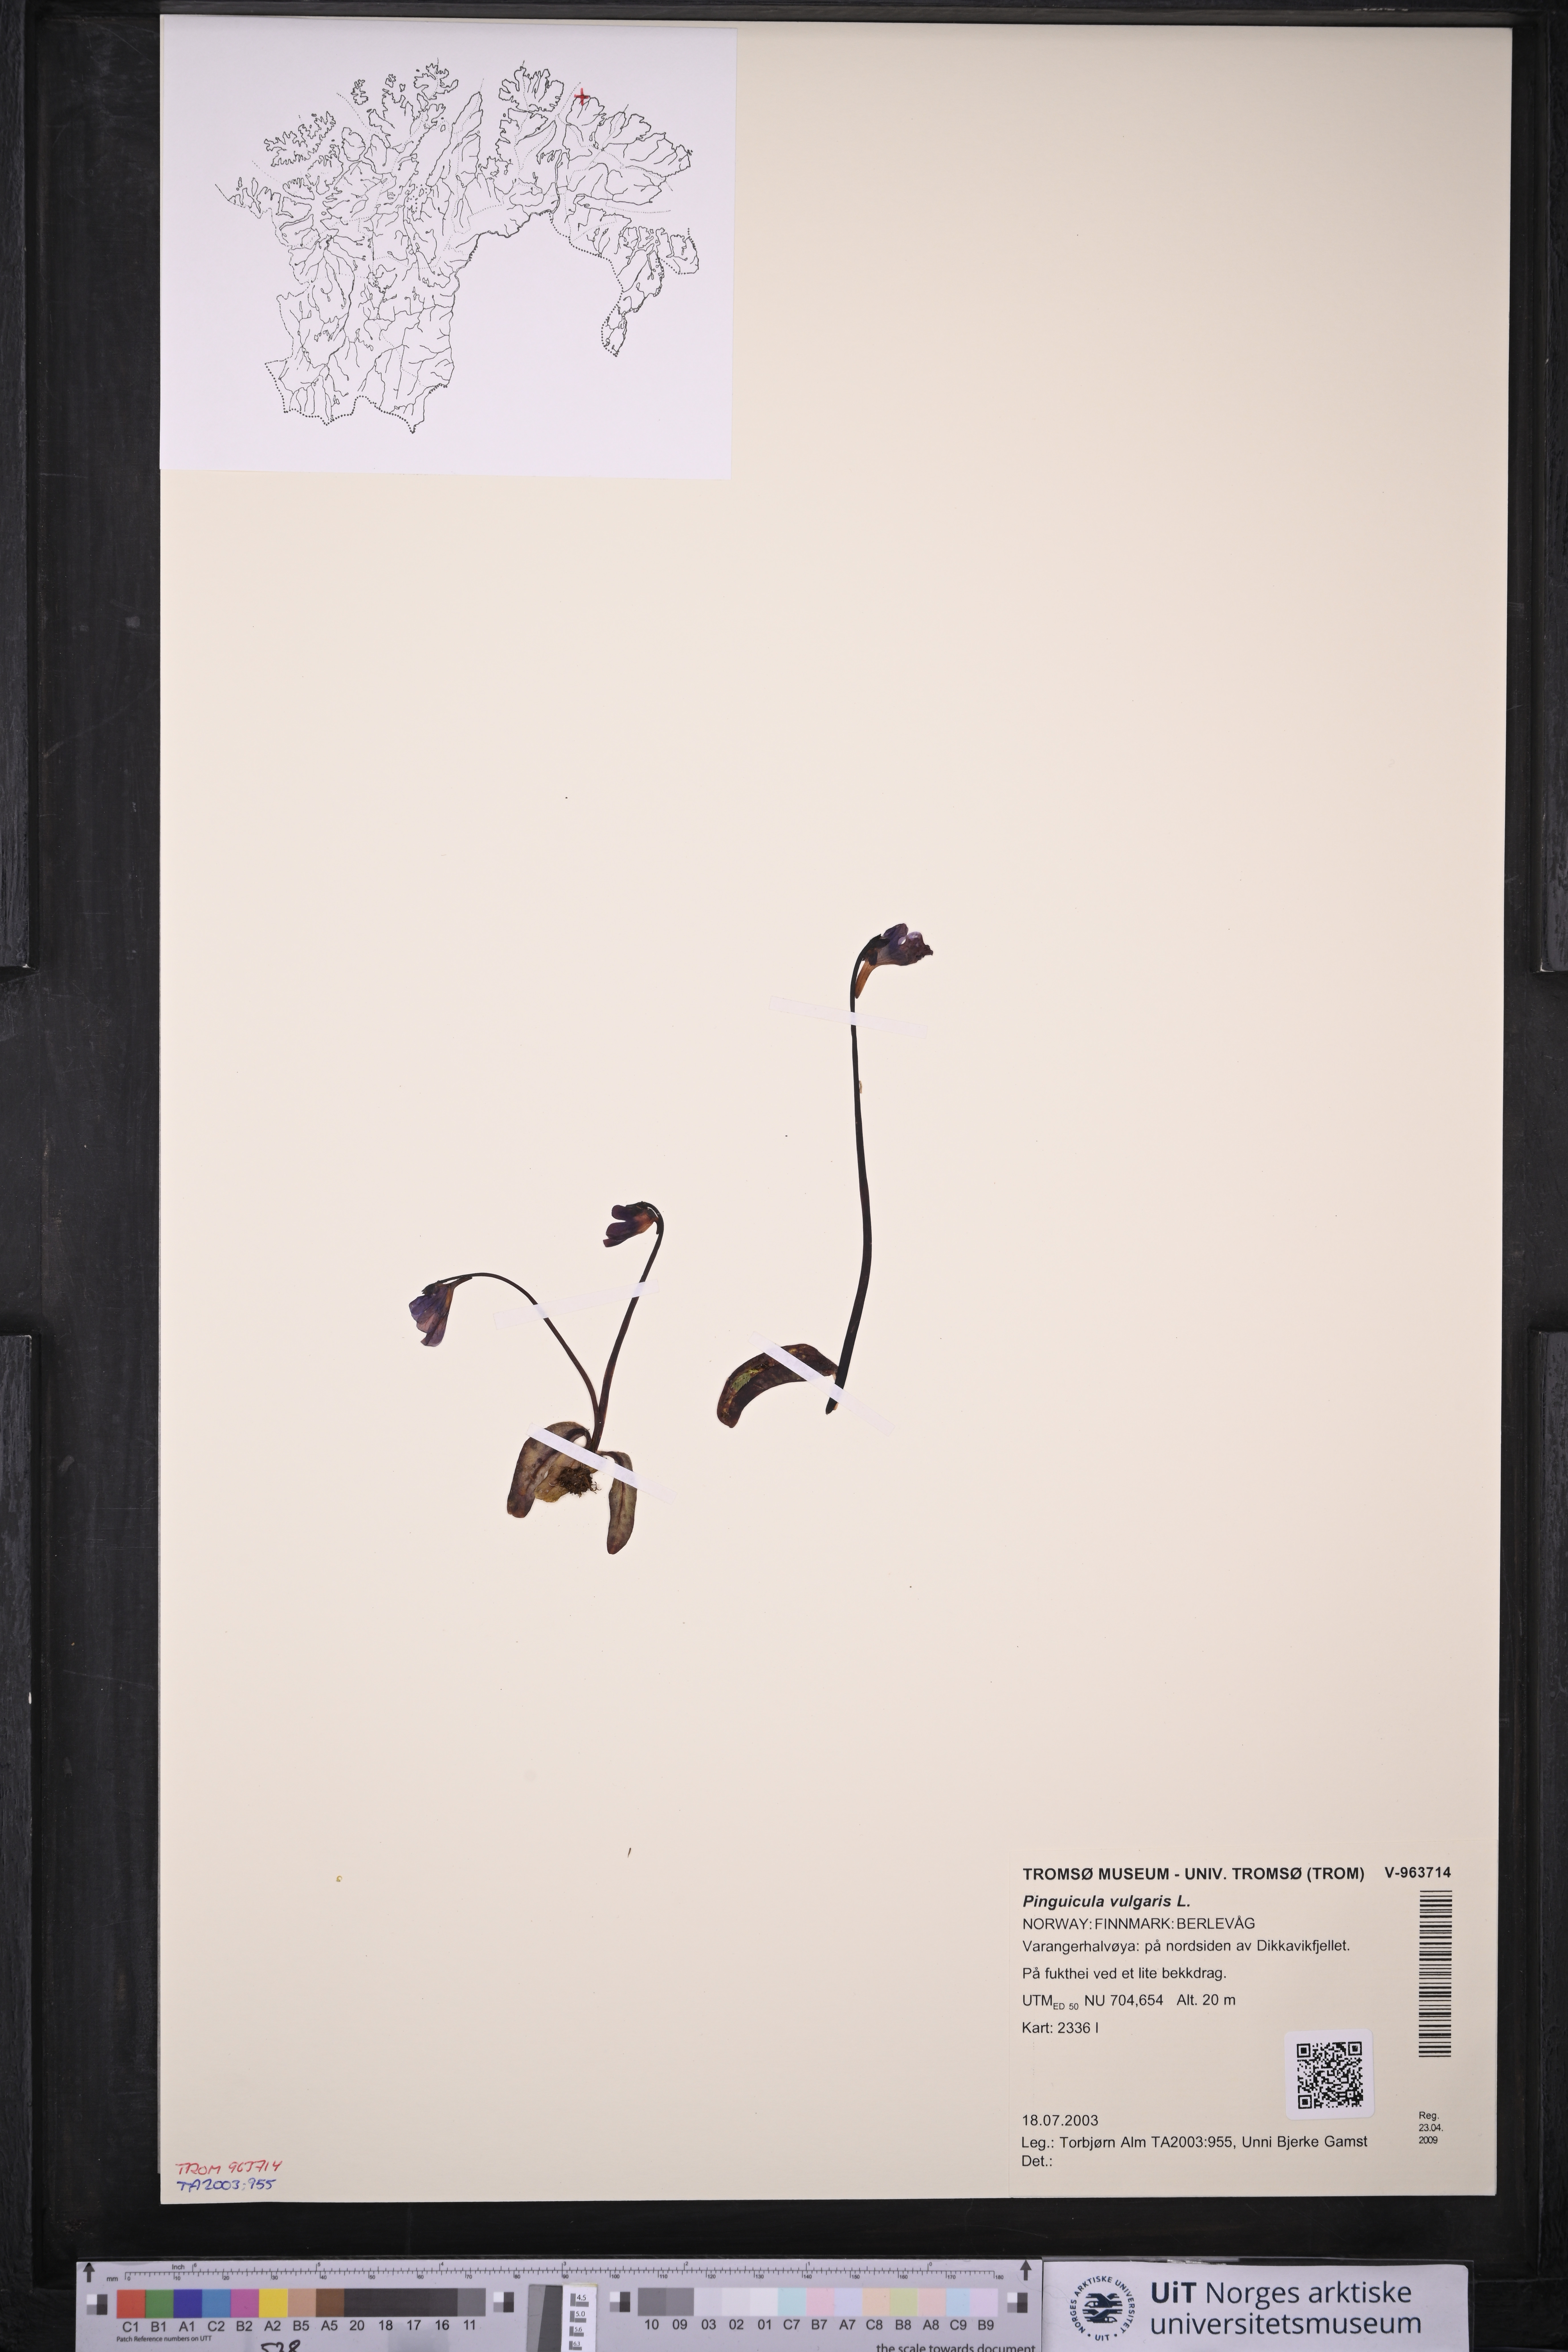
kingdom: Plantae
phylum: Tracheophyta
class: Magnoliopsida
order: Lamiales
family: Lentibulariaceae
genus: Pinguicula
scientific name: Pinguicula vulgaris
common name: Common butterwort
